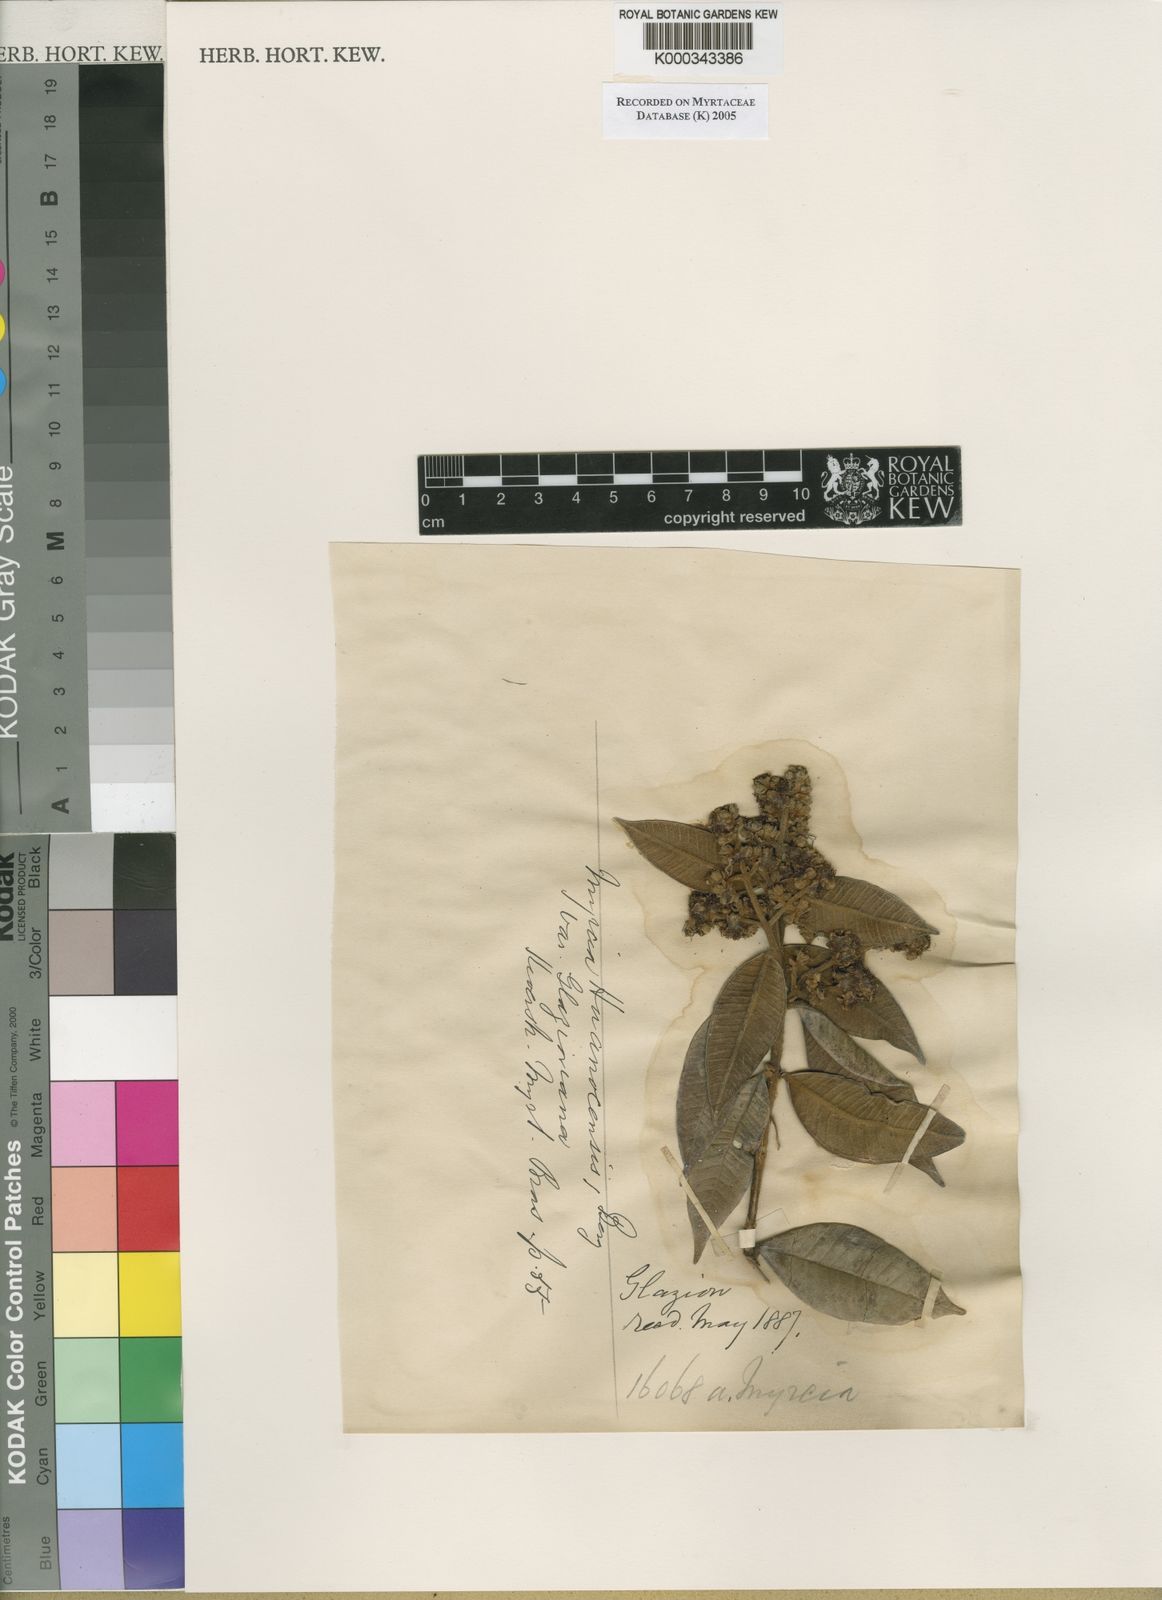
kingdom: Plantae
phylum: Tracheophyta
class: Magnoliopsida
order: Myrtales
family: Myrtaceae
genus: Myrcia
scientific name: Myrcia mollis
